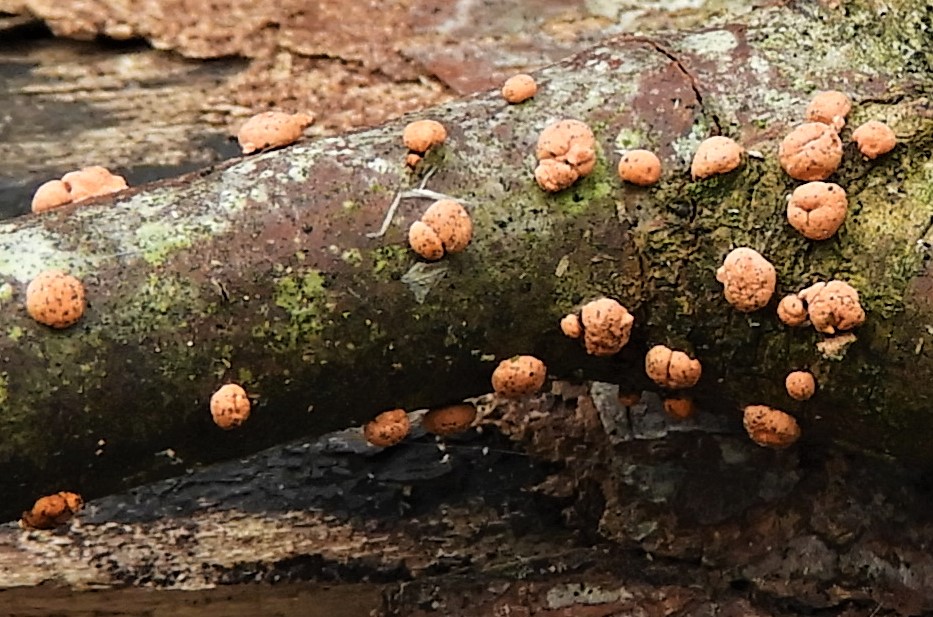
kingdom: Fungi
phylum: Ascomycota
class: Sordariomycetes
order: Hypocreales
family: Nectriaceae
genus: Nectria
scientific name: Nectria cinnabarina
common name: almindelig cinnobersvamp
